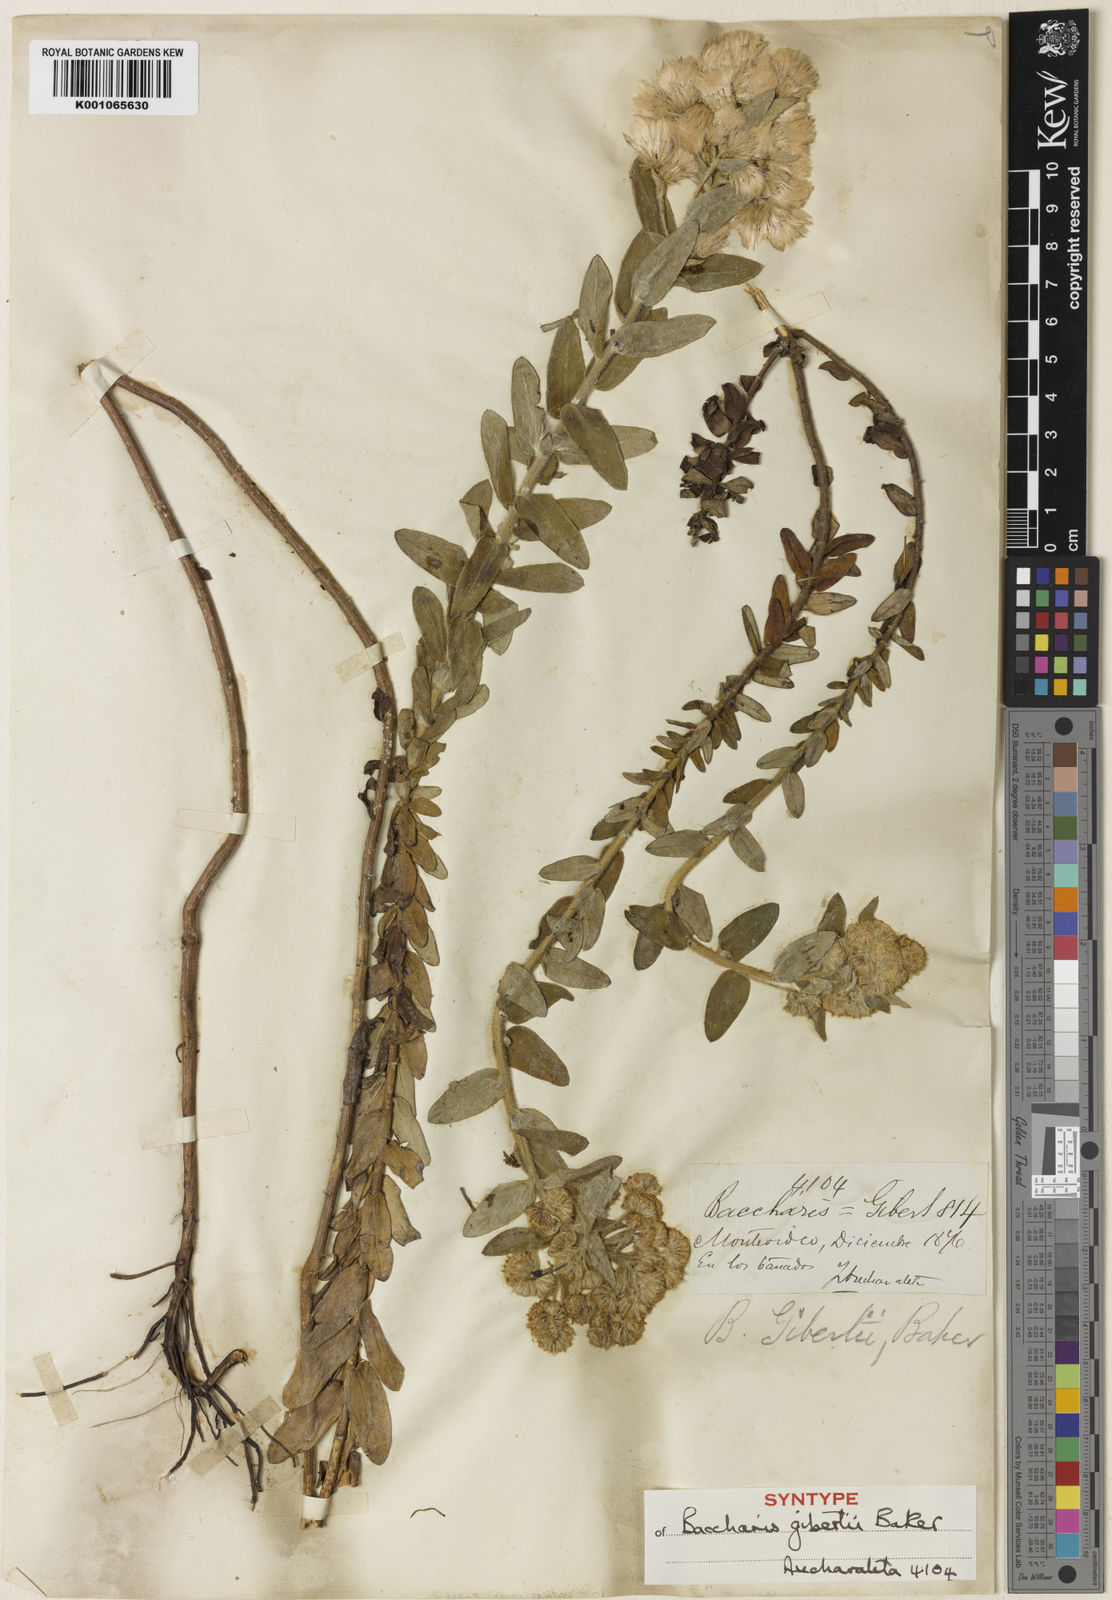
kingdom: Plantae
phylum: Tracheophyta
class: Magnoliopsida
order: Asterales
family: Asteraceae
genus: Baccharis
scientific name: Baccharis gibertii
